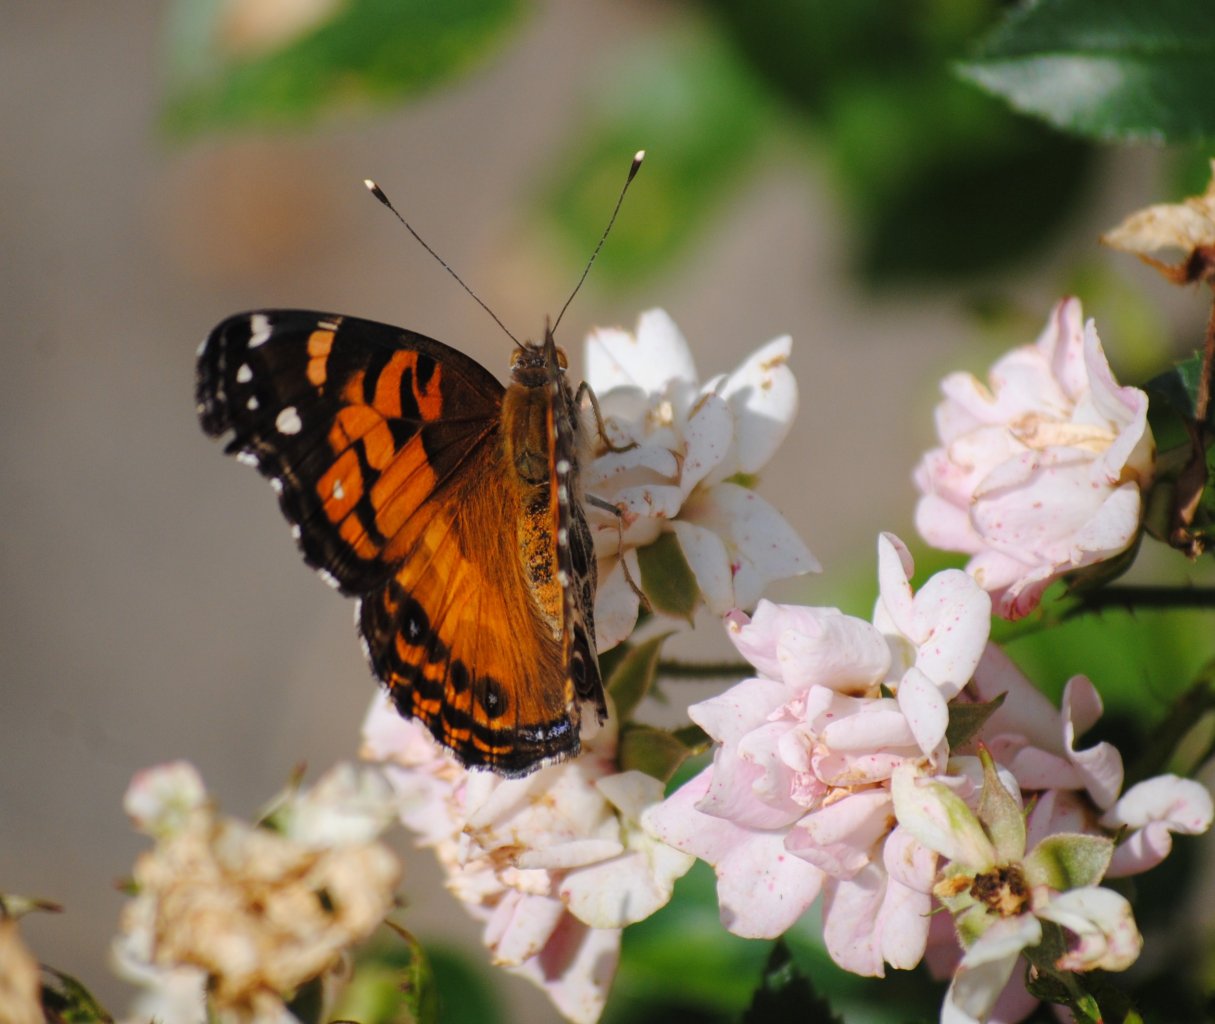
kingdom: Animalia
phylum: Arthropoda
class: Insecta
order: Lepidoptera
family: Nymphalidae
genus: Vanessa
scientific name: Vanessa virginiensis
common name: American Lady
